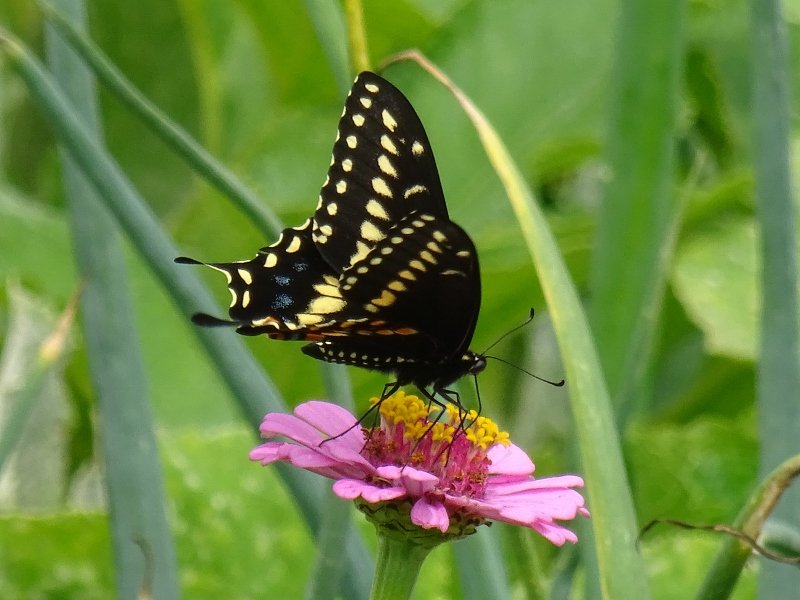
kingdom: Animalia
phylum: Arthropoda
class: Insecta
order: Lepidoptera
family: Papilionidae
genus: Papilio
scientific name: Papilio polyxenes
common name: Black Swallowtail
